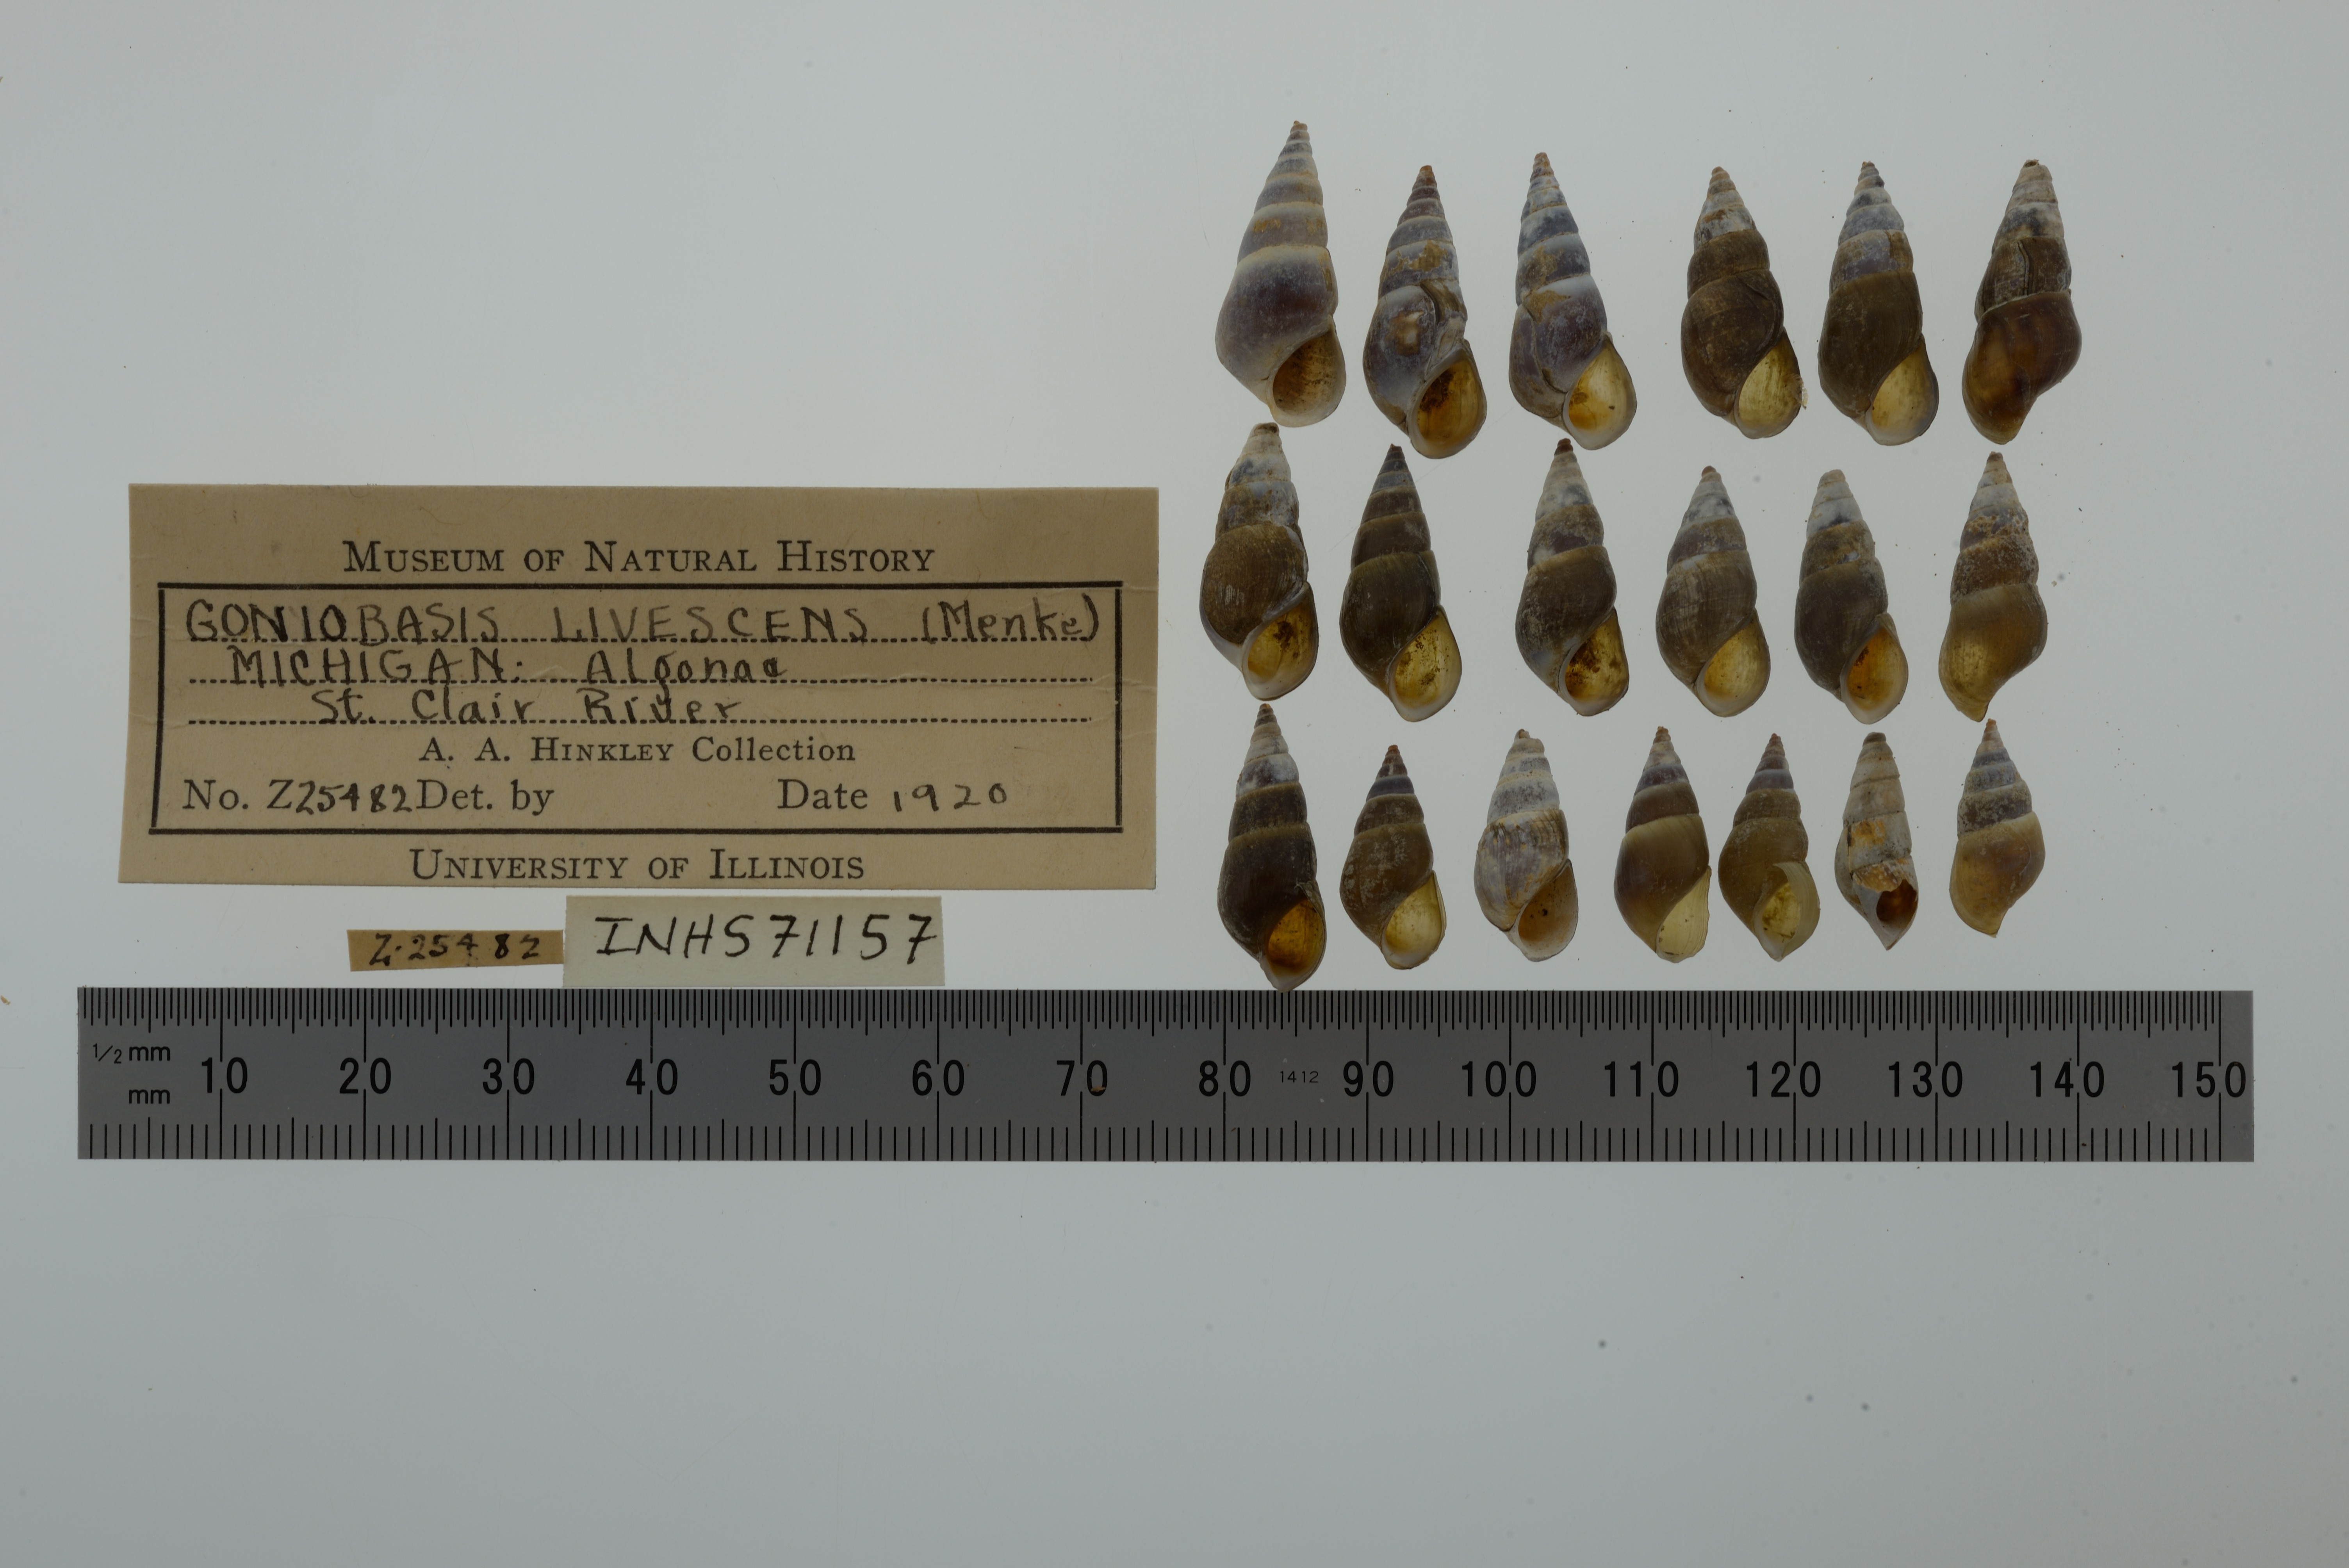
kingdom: Animalia
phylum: Mollusca
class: Gastropoda
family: Pleuroceridae
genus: Elimia
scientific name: Elimia livescens
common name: Liver elimia
